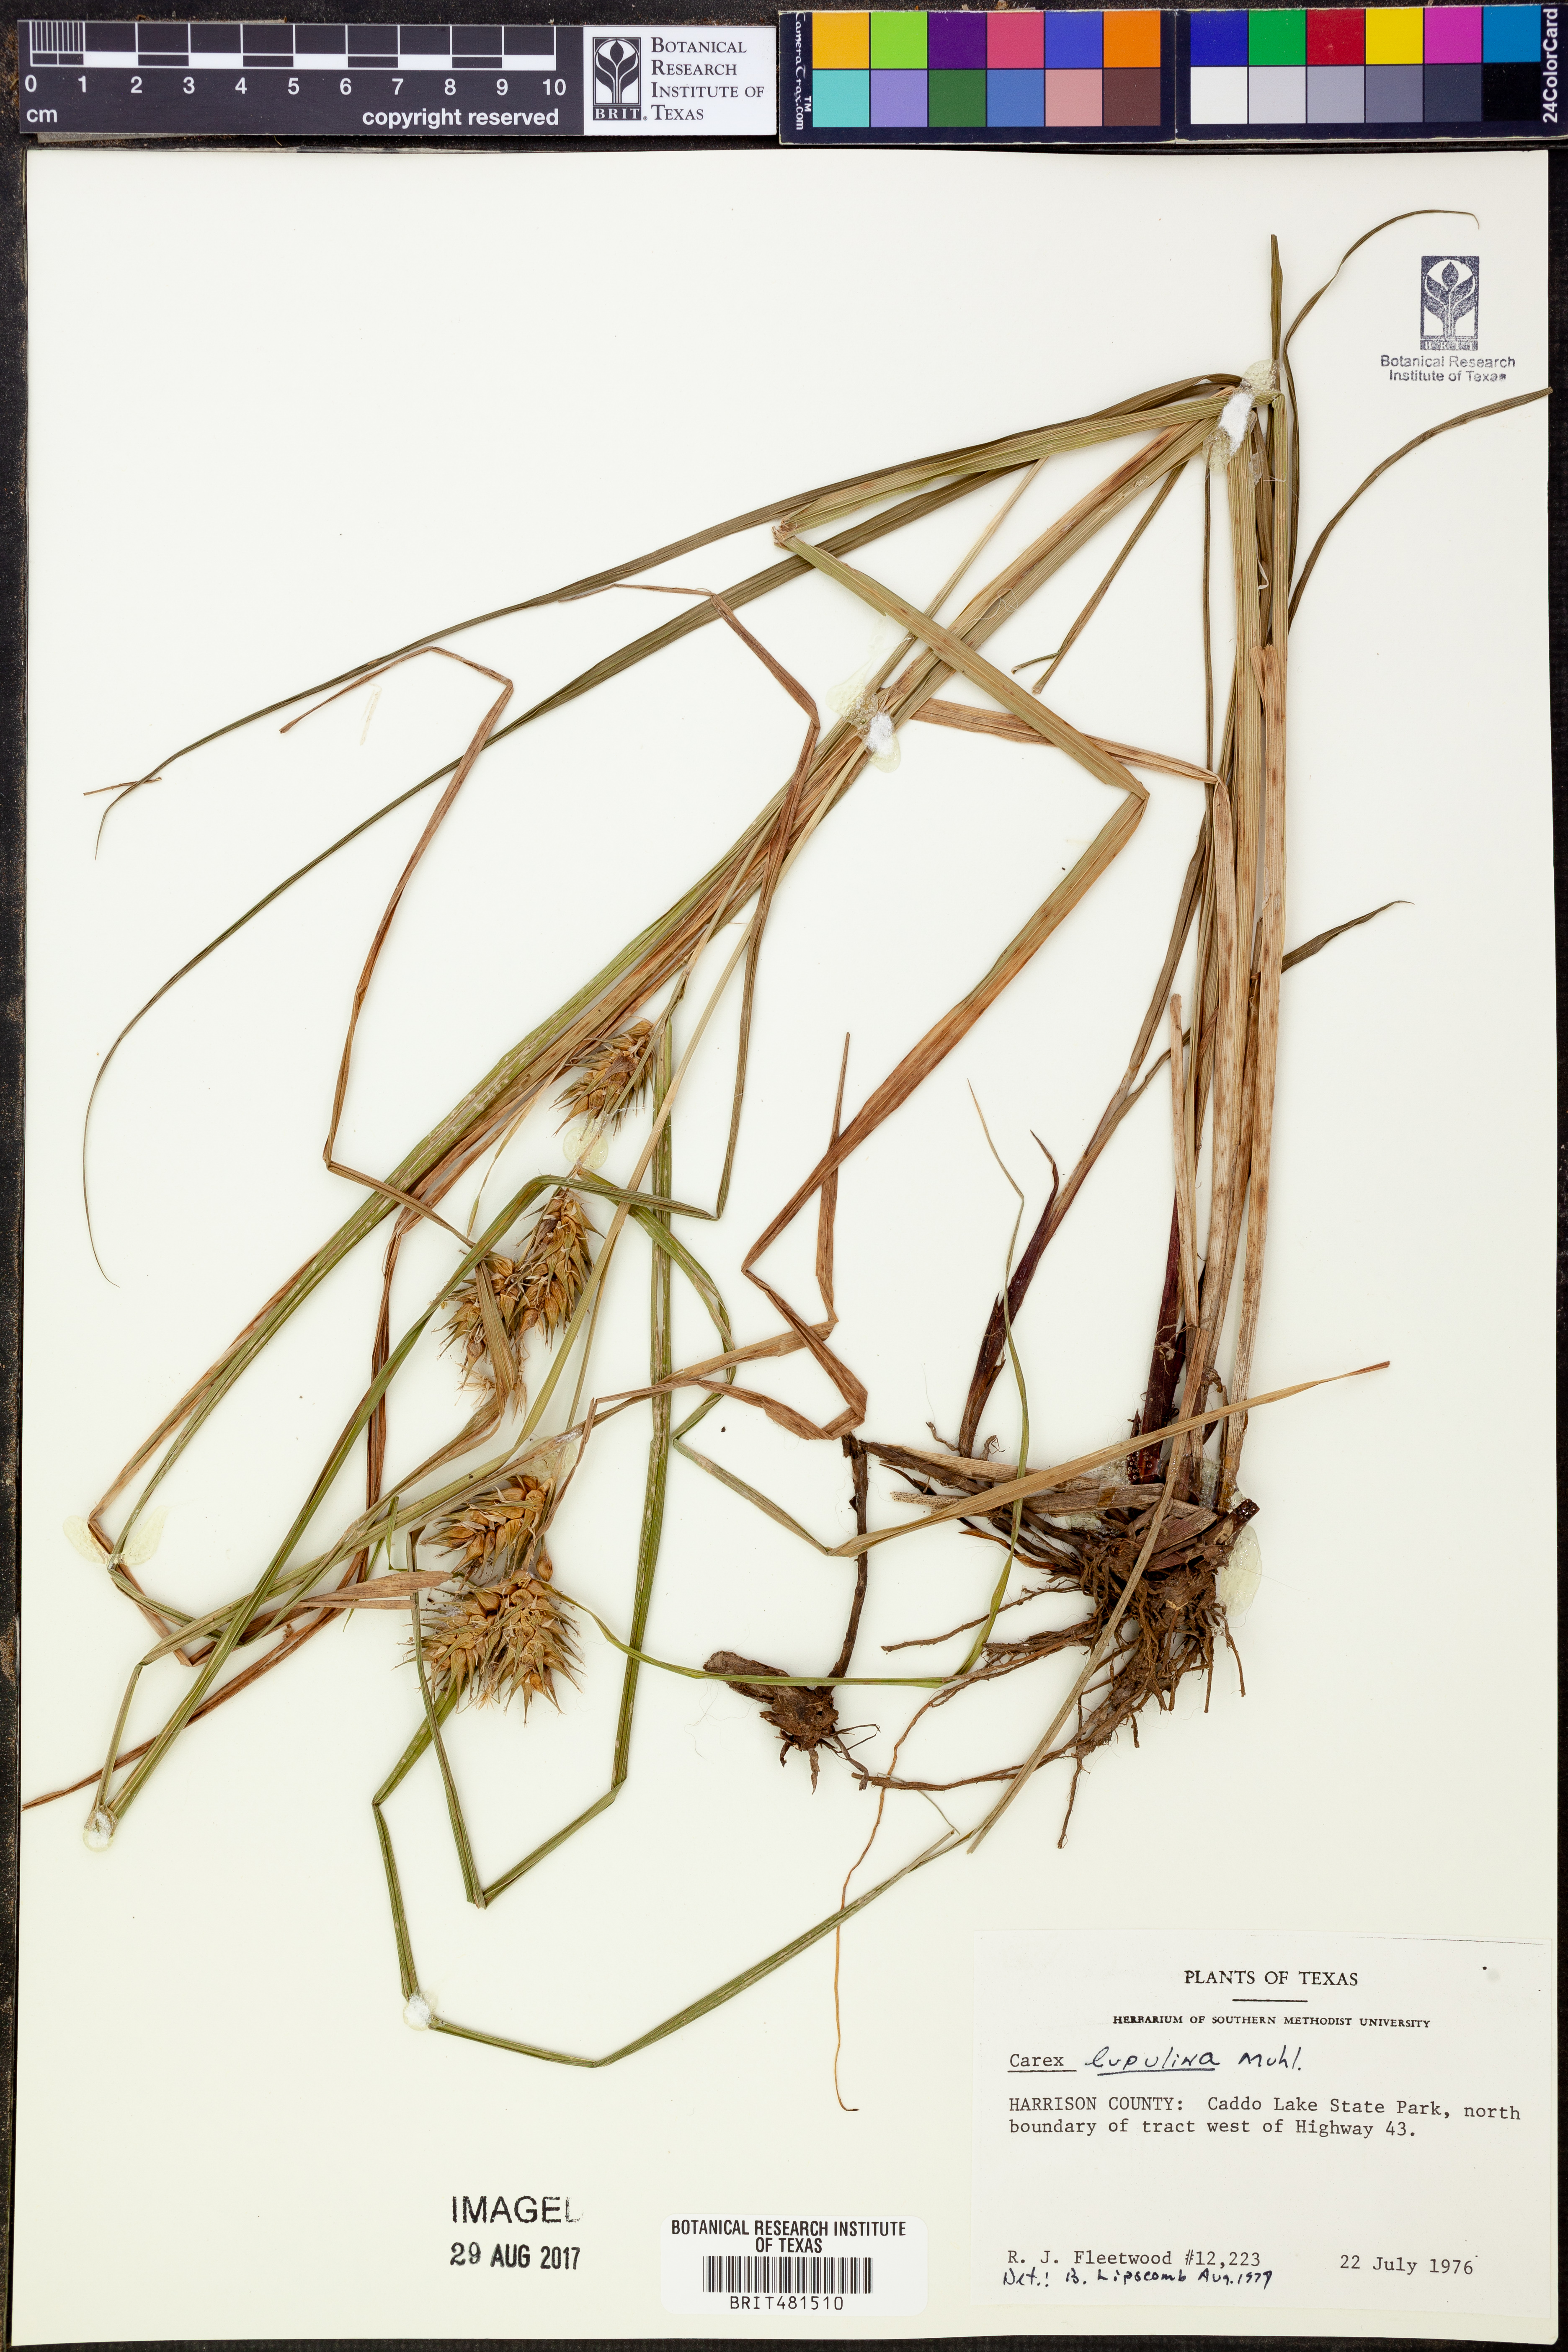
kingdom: Plantae
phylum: Tracheophyta
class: Liliopsida
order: Poales
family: Cyperaceae
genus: Carex
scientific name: Carex lupulina
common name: Hop sedge
